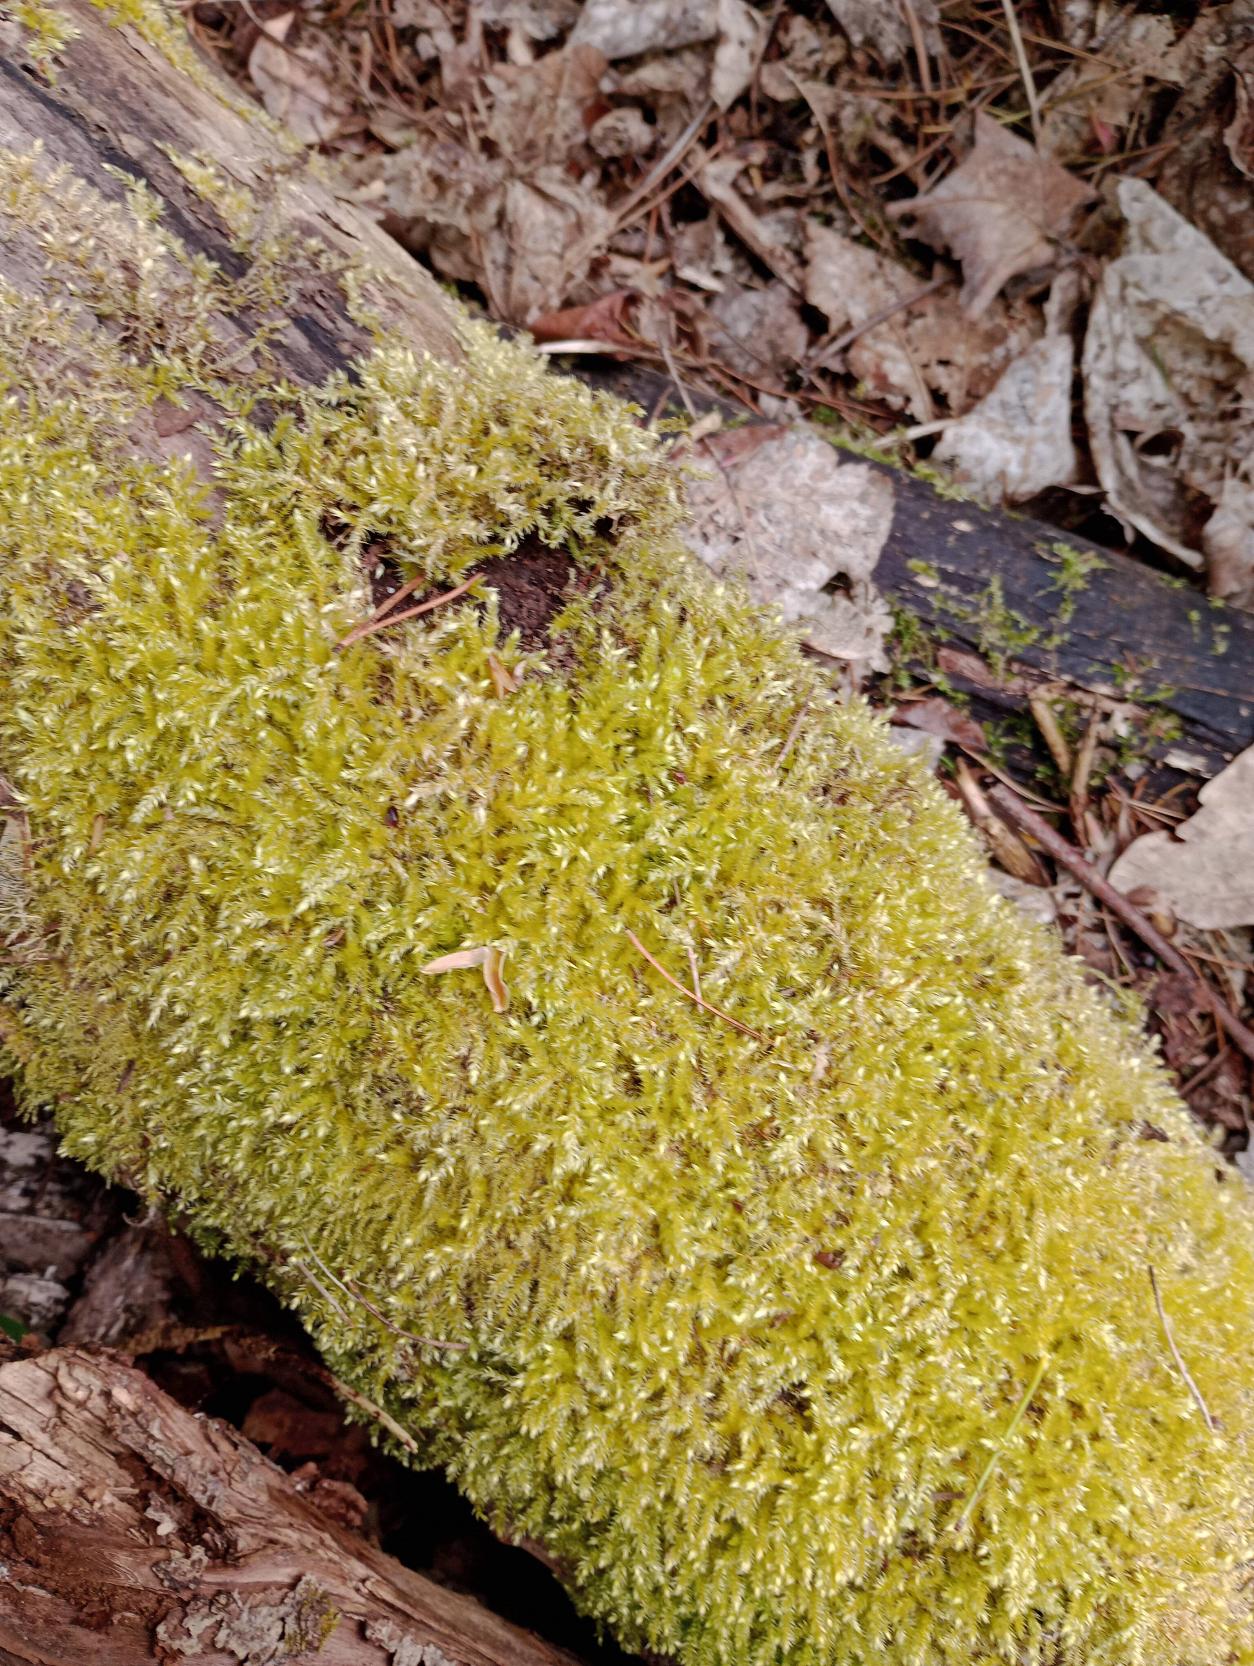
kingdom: Plantae
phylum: Bryophyta
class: Bryopsida
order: Hypnales
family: Brachytheciaceae
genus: Brachythecium
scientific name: Brachythecium rutabulum
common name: Almindelig kortkapsel
